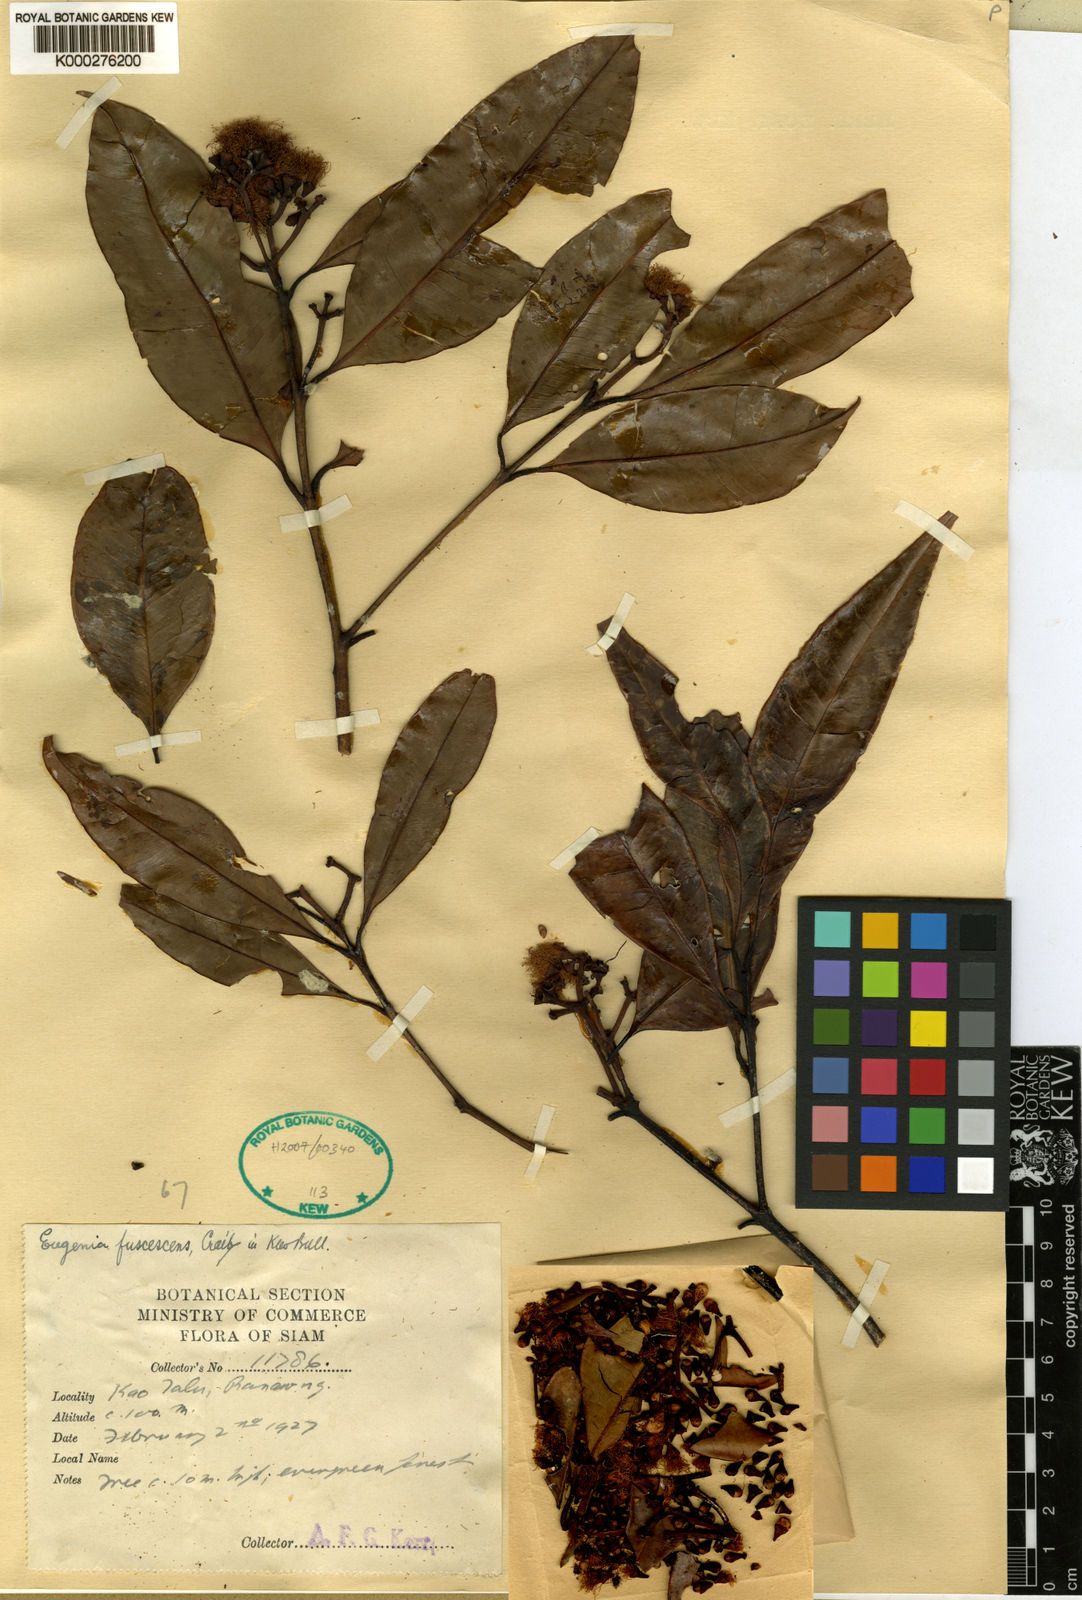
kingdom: Plantae
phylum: Tracheophyta
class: Magnoliopsida
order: Myrtales
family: Myrtaceae
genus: Syzygium
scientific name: Syzygium fuscescens
